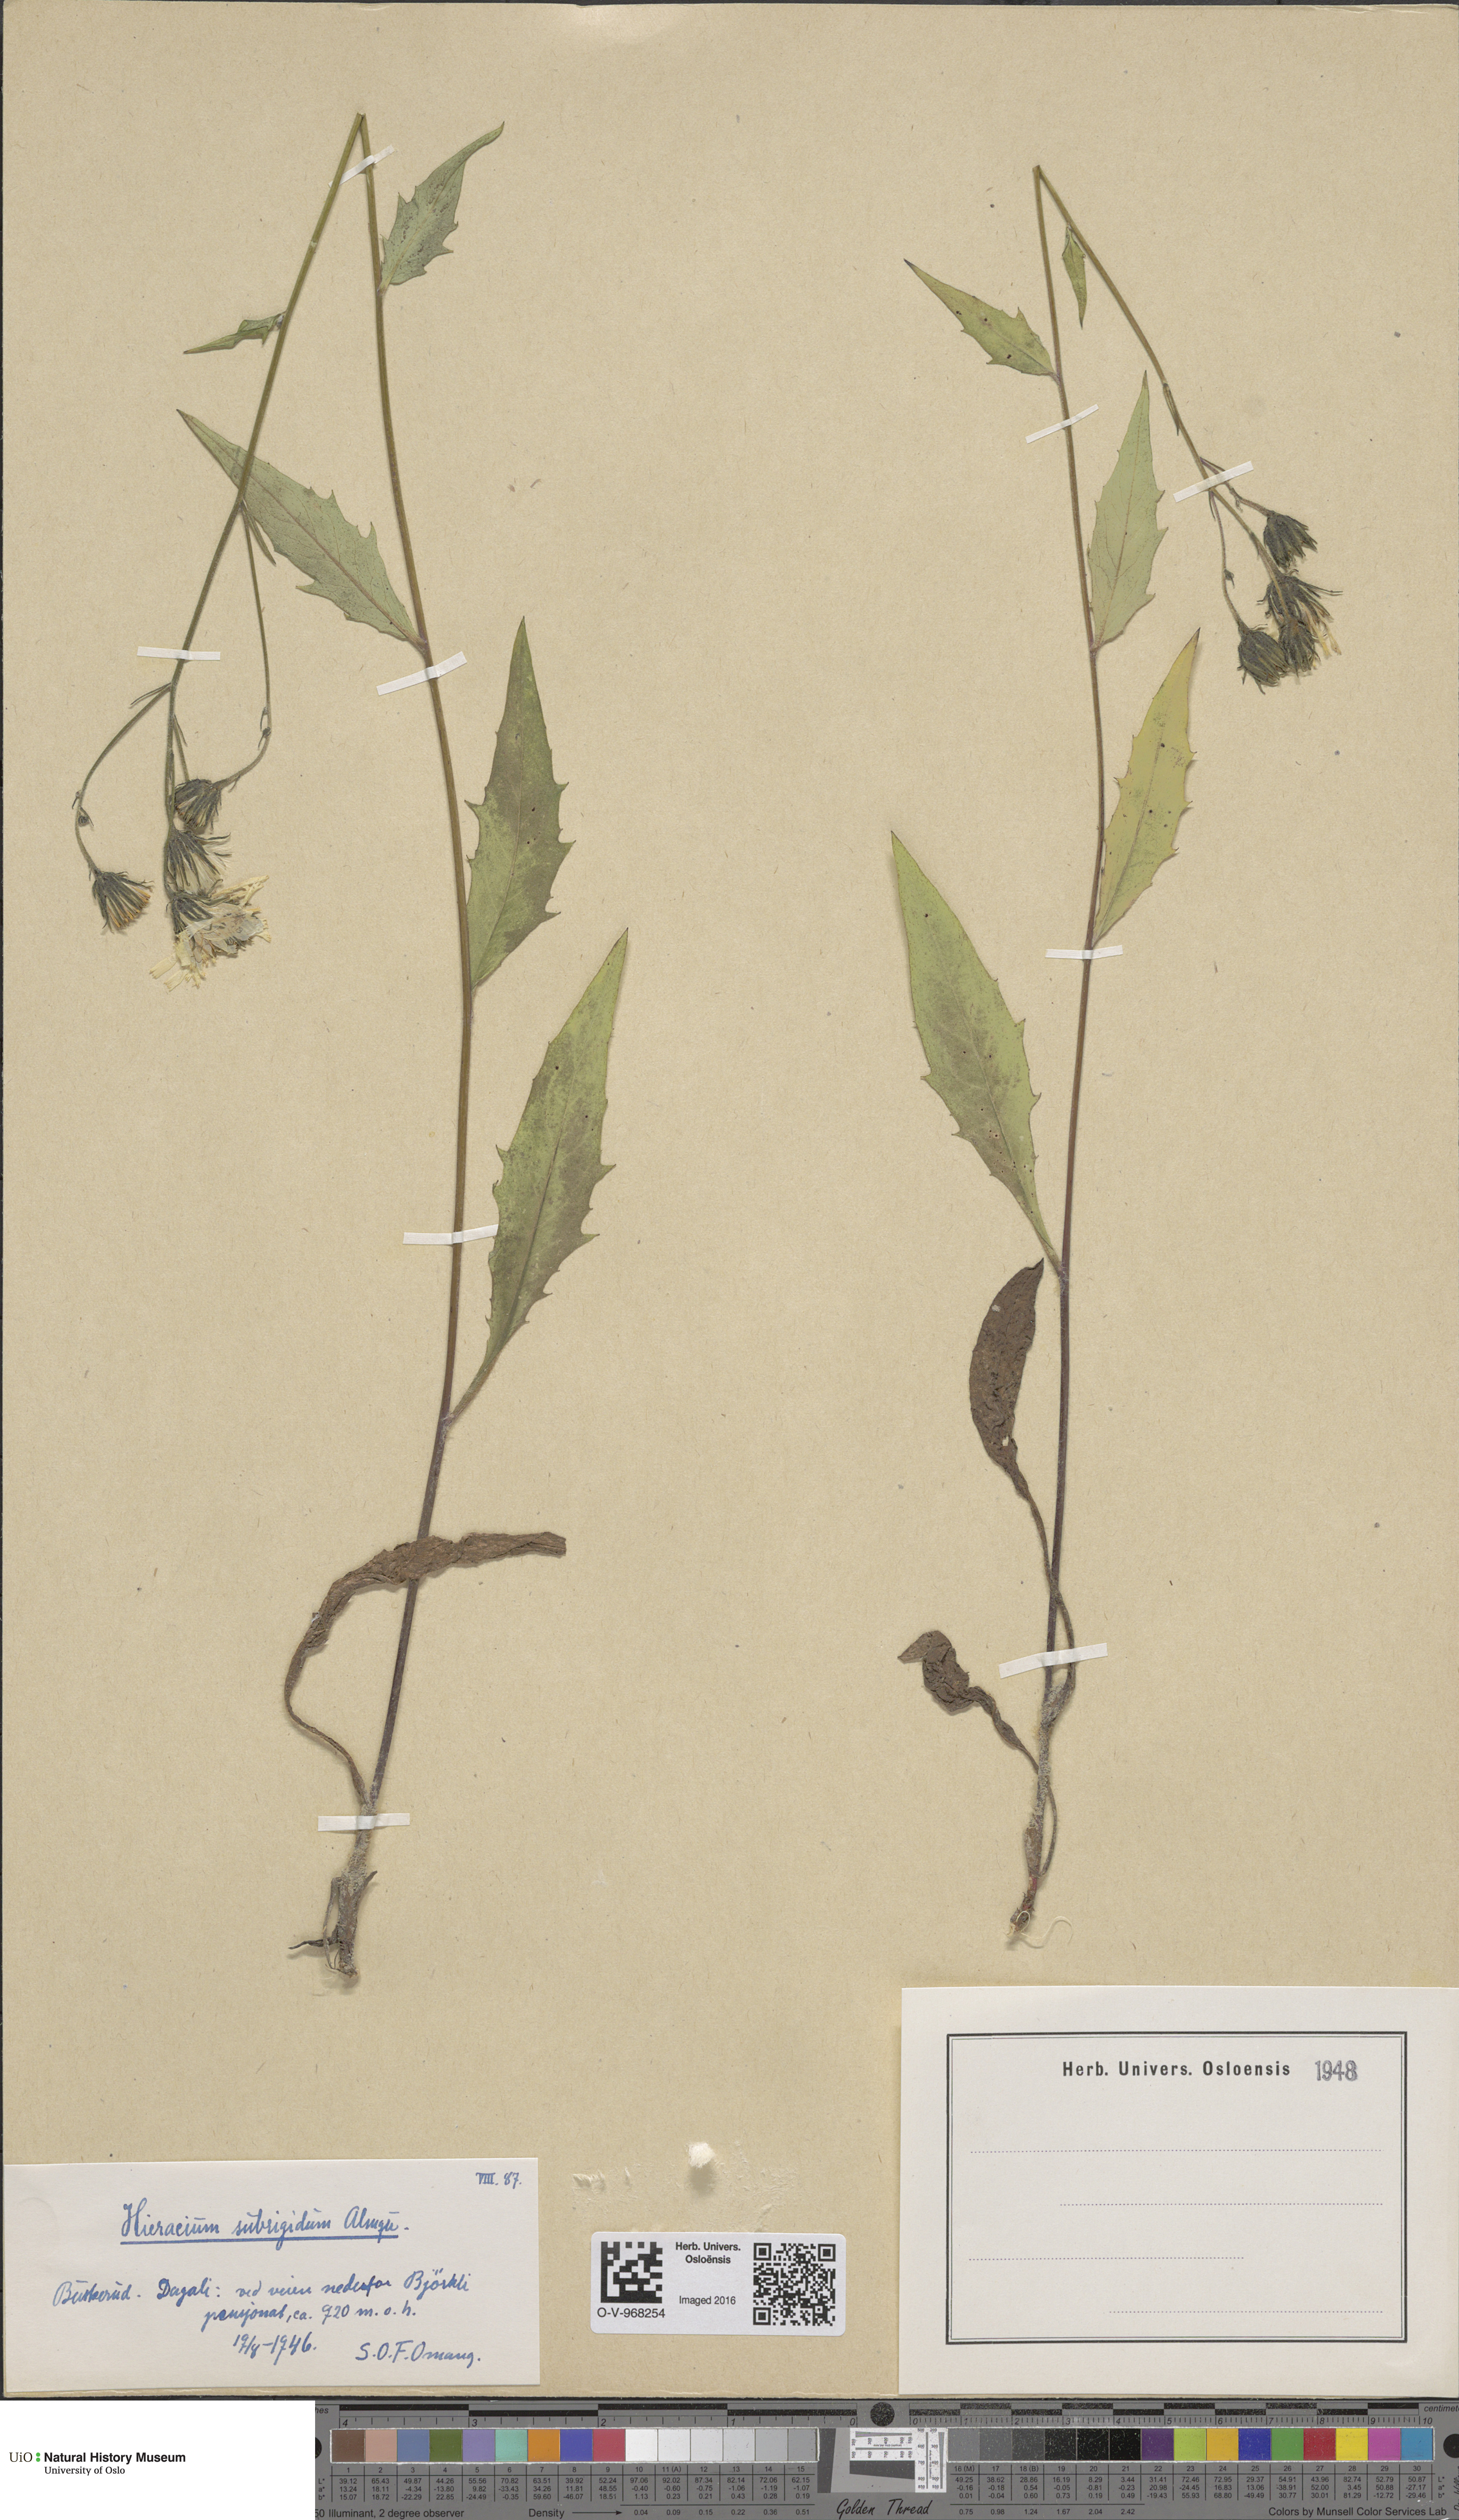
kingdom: Plantae
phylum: Tracheophyta
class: Magnoliopsida
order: Asterales
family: Asteraceae
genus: Hieracium
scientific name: Hieracium subrigidum
